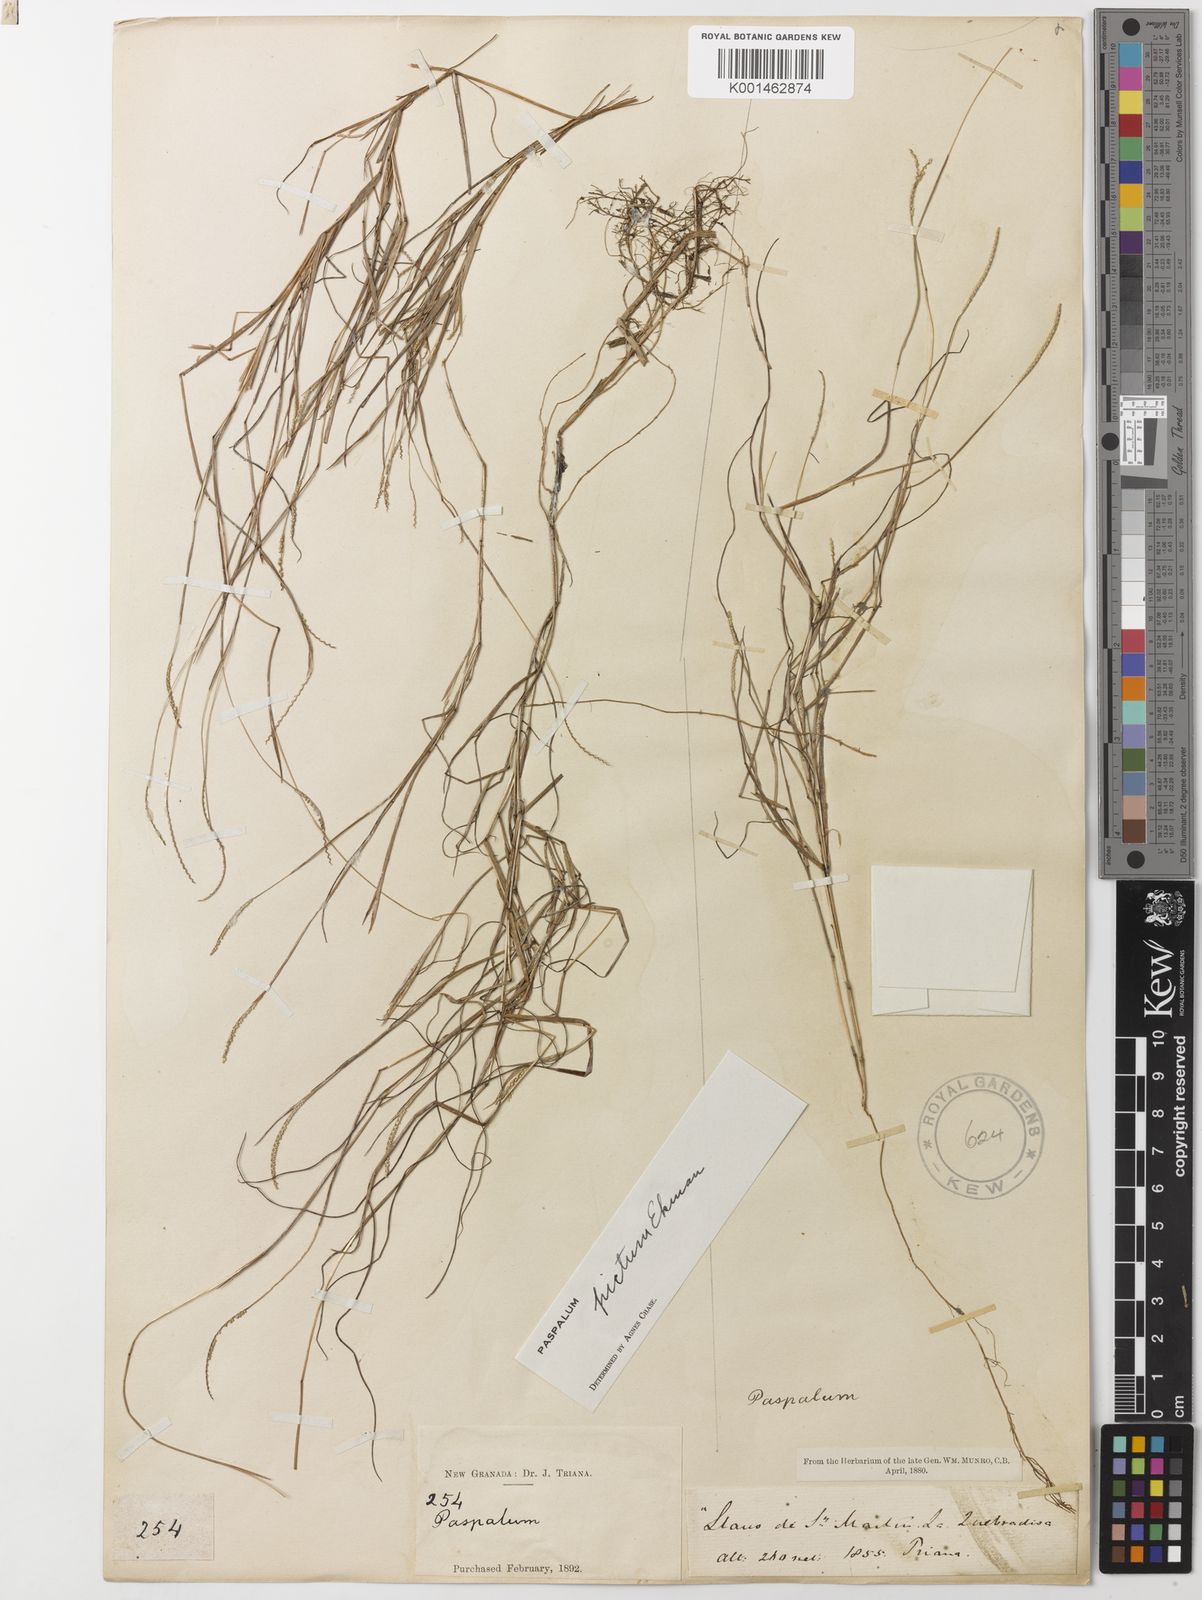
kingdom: Plantae
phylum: Tracheophyta
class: Liliopsida
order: Poales
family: Poaceae
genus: Paspalum
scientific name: Paspalum pictum
